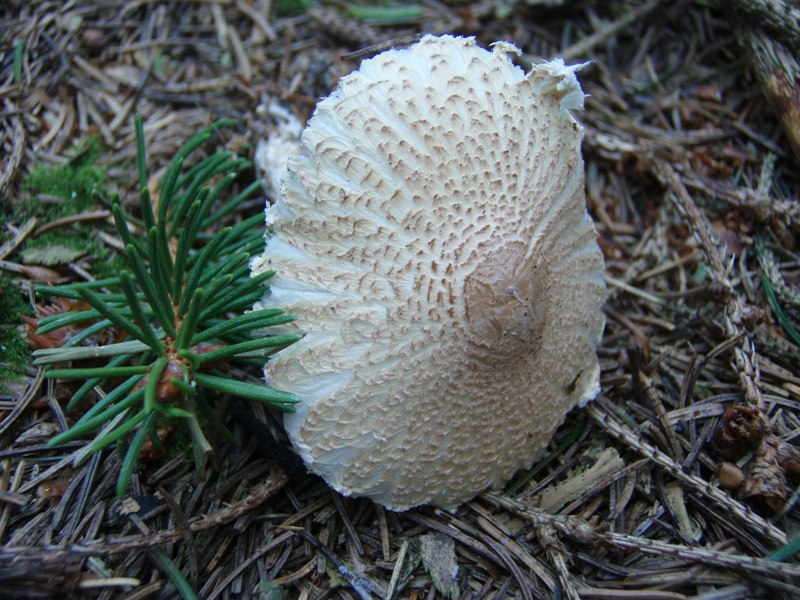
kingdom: Fungi
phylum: Basidiomycota
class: Agaricomycetes
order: Agaricales
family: Agaricaceae
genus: Lepiota
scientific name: Lepiota clypeolaria
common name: flosset parasolhat
